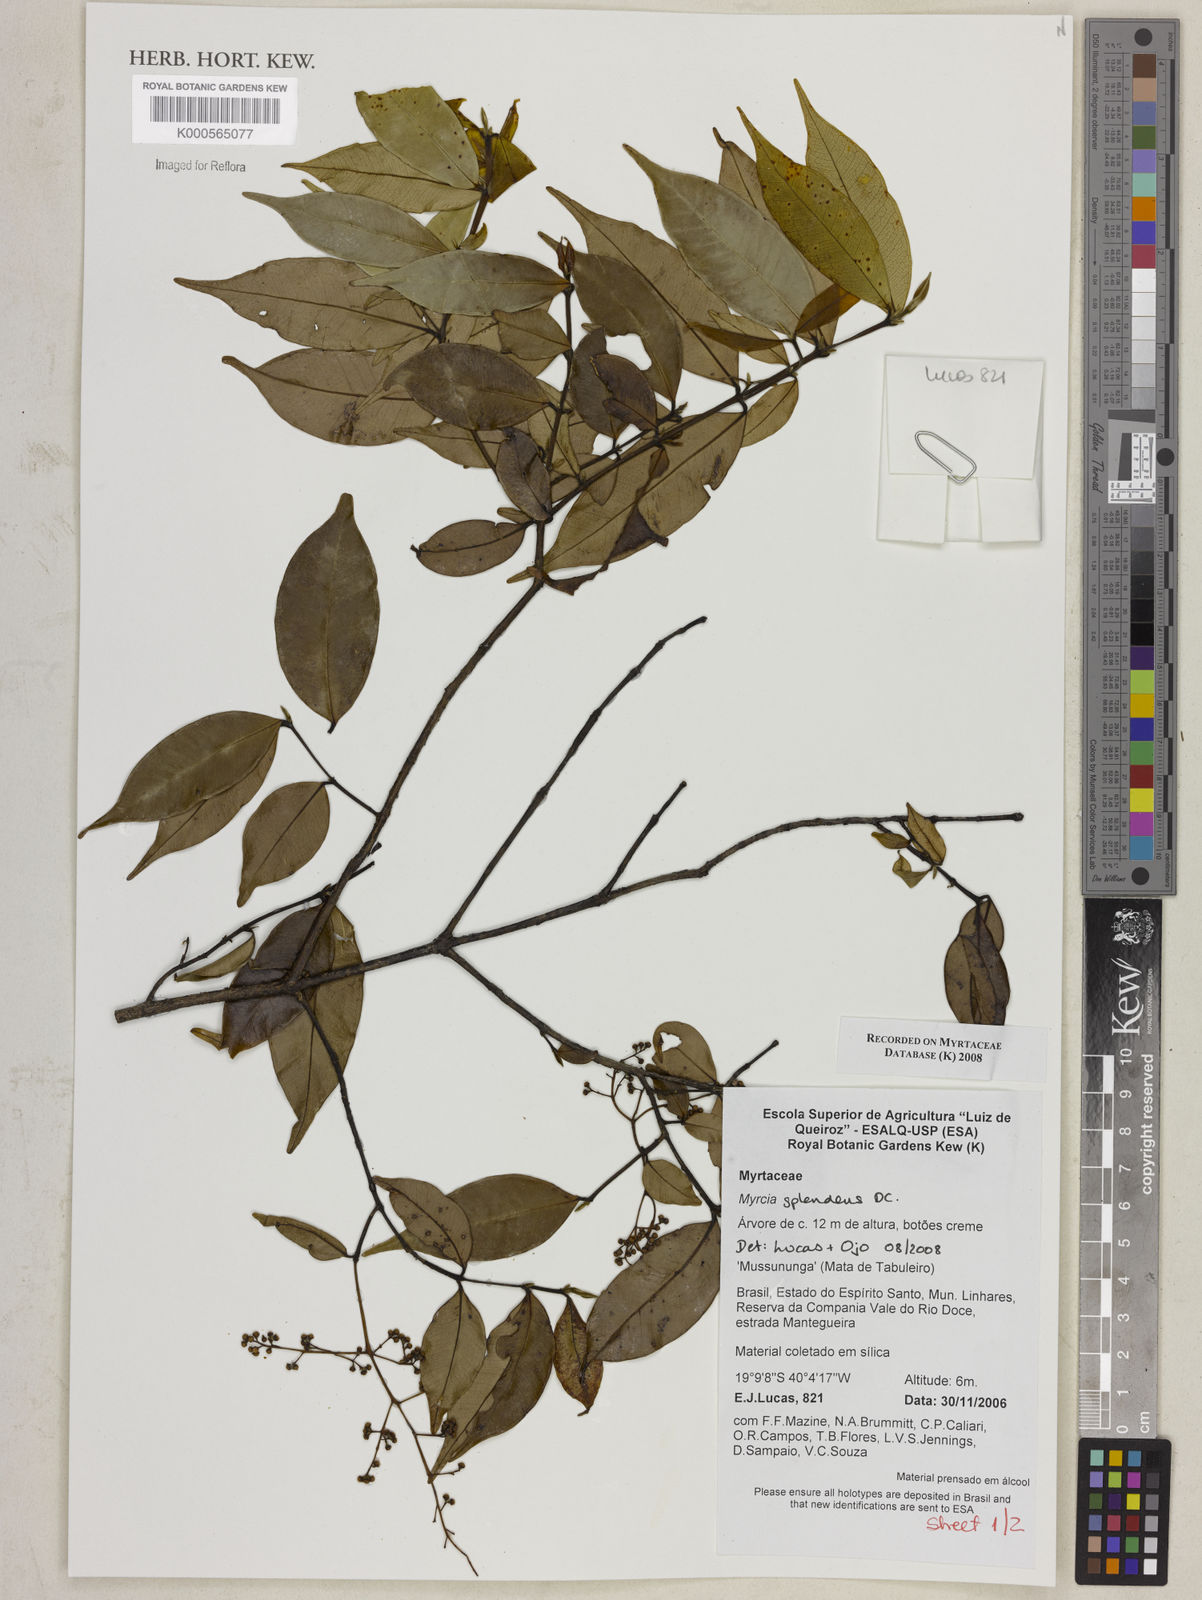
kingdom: Plantae
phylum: Tracheophyta
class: Magnoliopsida
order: Myrtales
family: Myrtaceae
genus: Myrcia
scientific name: Myrcia splendens
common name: Surinam cherry
